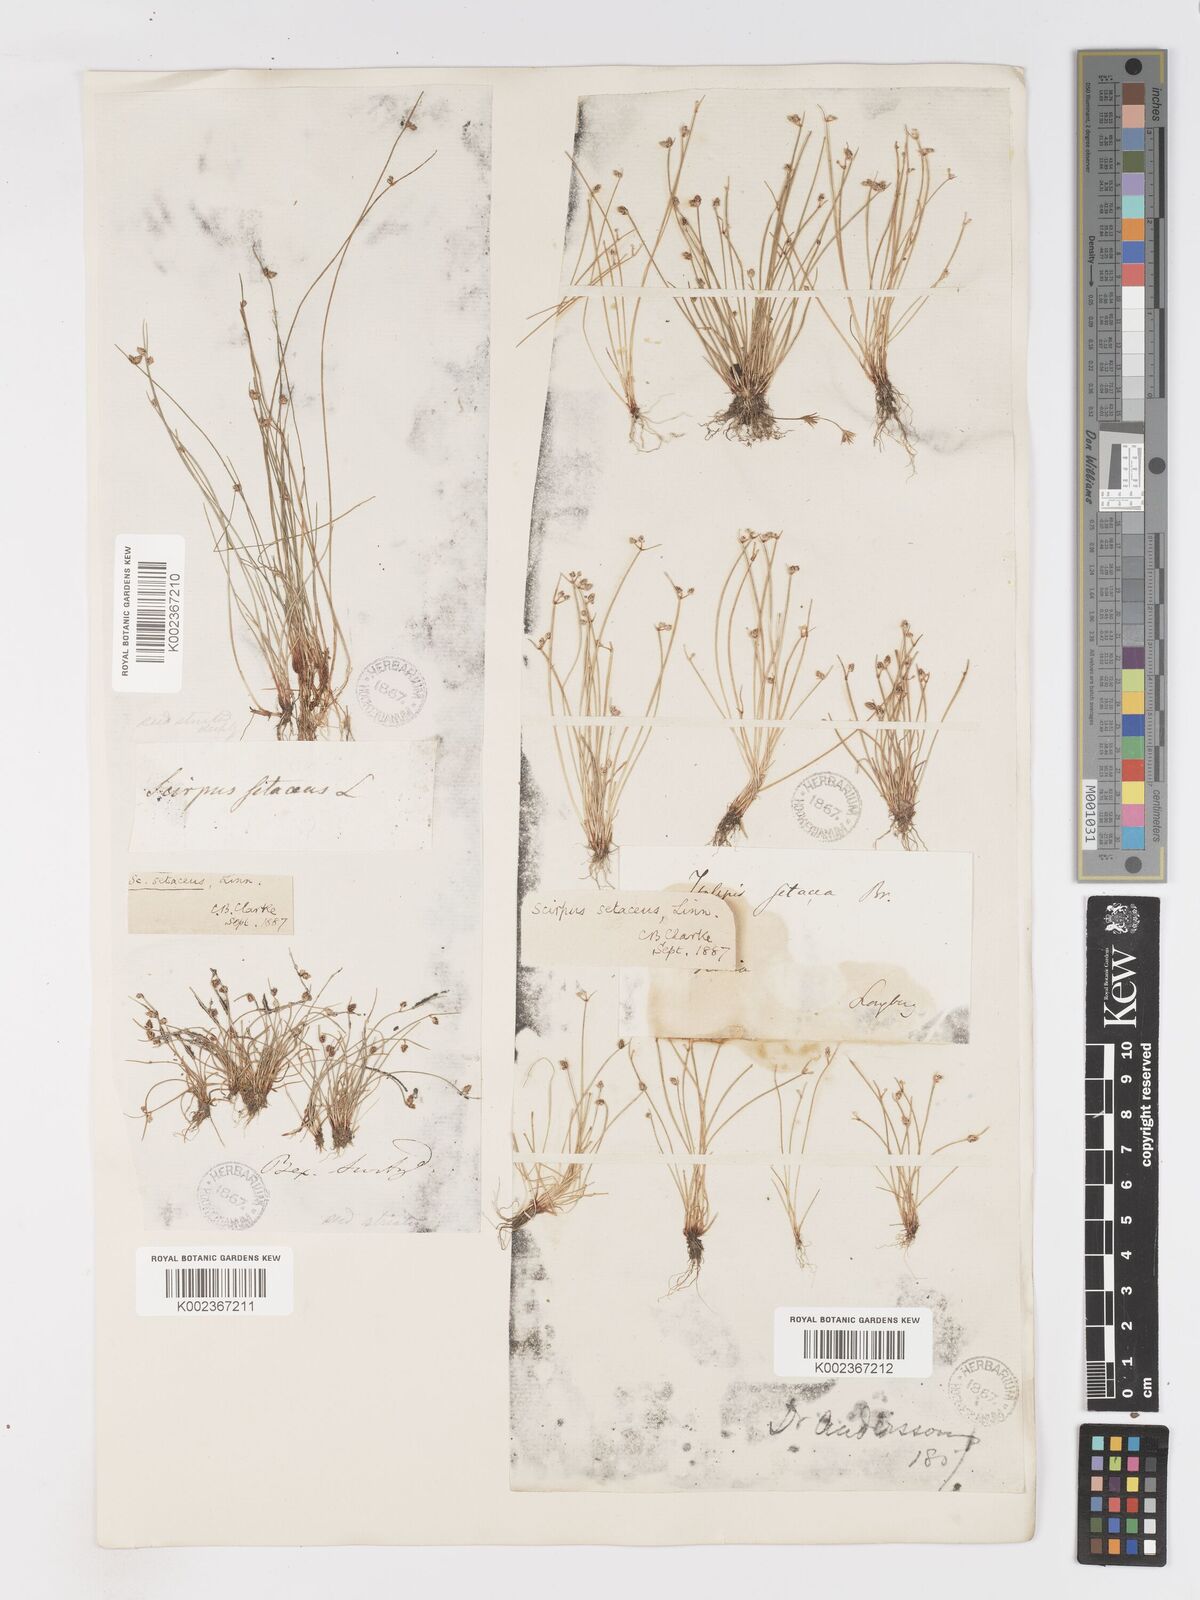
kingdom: Plantae
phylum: Tracheophyta
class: Liliopsida
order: Poales
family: Cyperaceae
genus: Isolepis
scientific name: Isolepis setacea
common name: Bristle club-rush
